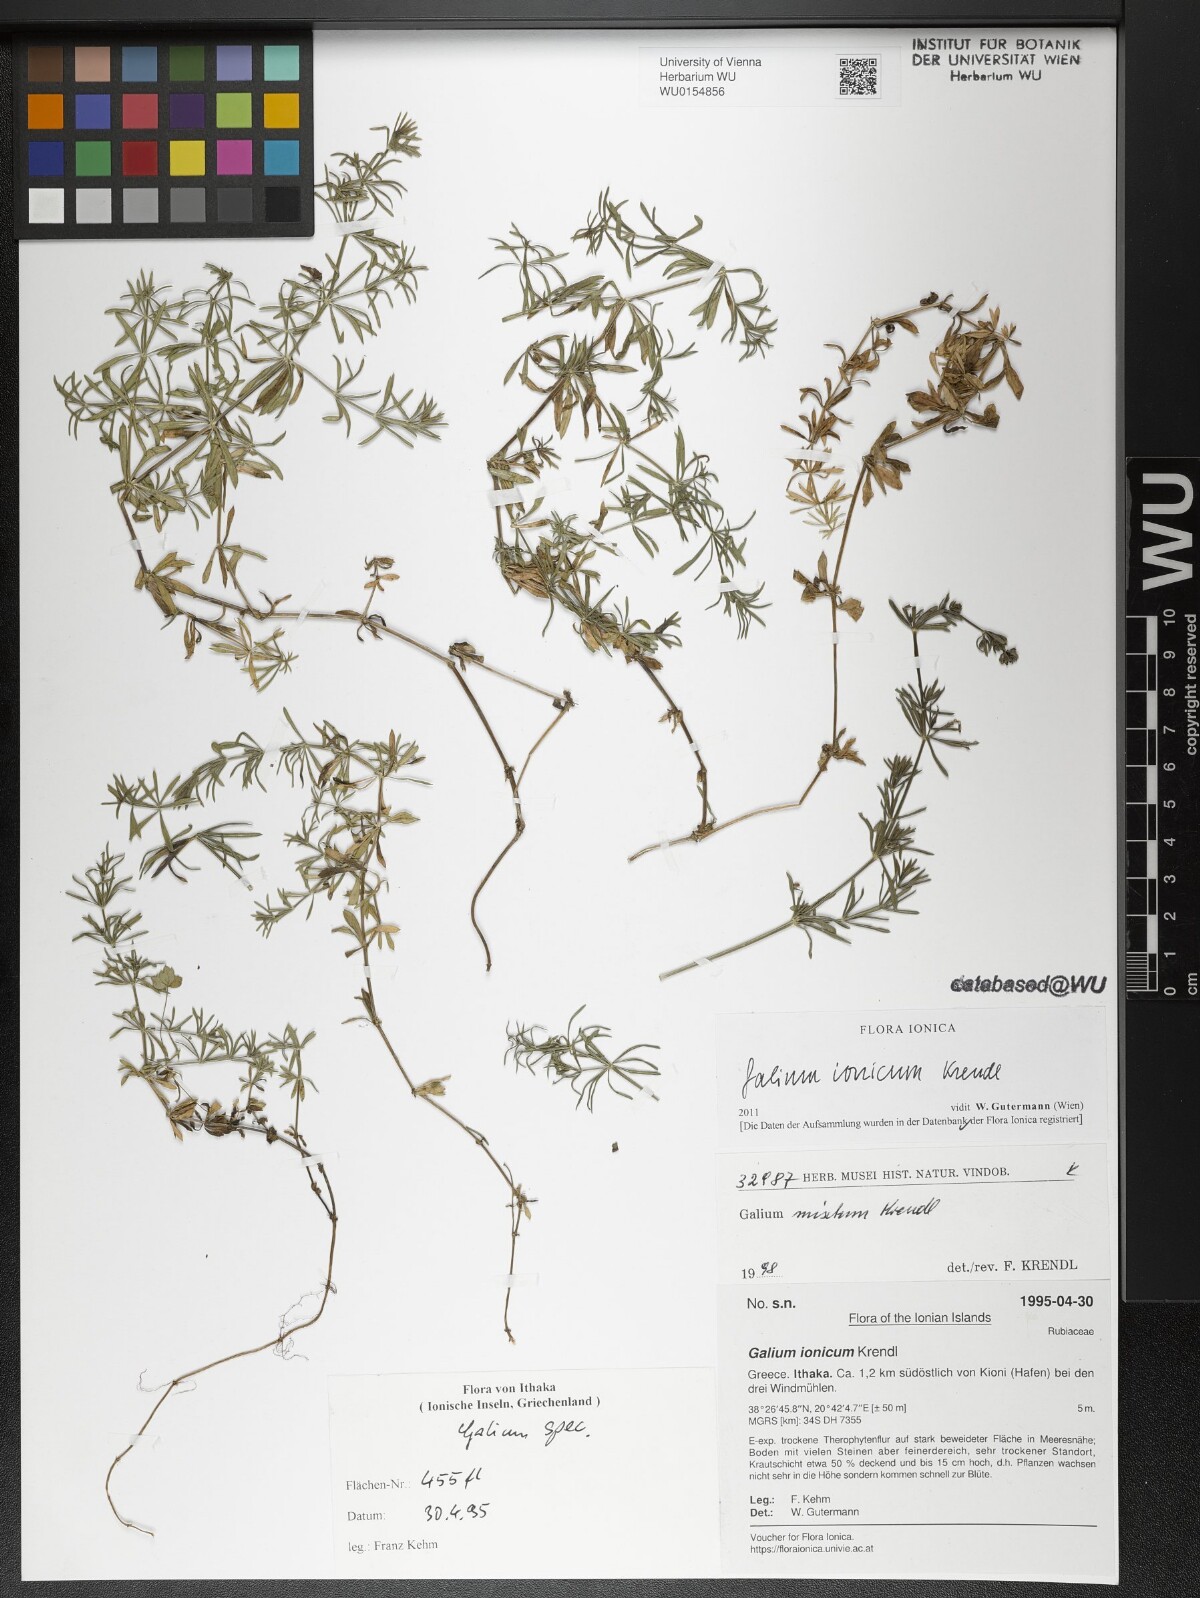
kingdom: Plantae
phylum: Tracheophyta
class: Magnoliopsida
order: Gentianales
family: Rubiaceae
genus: Galium
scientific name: Galium ionicum
